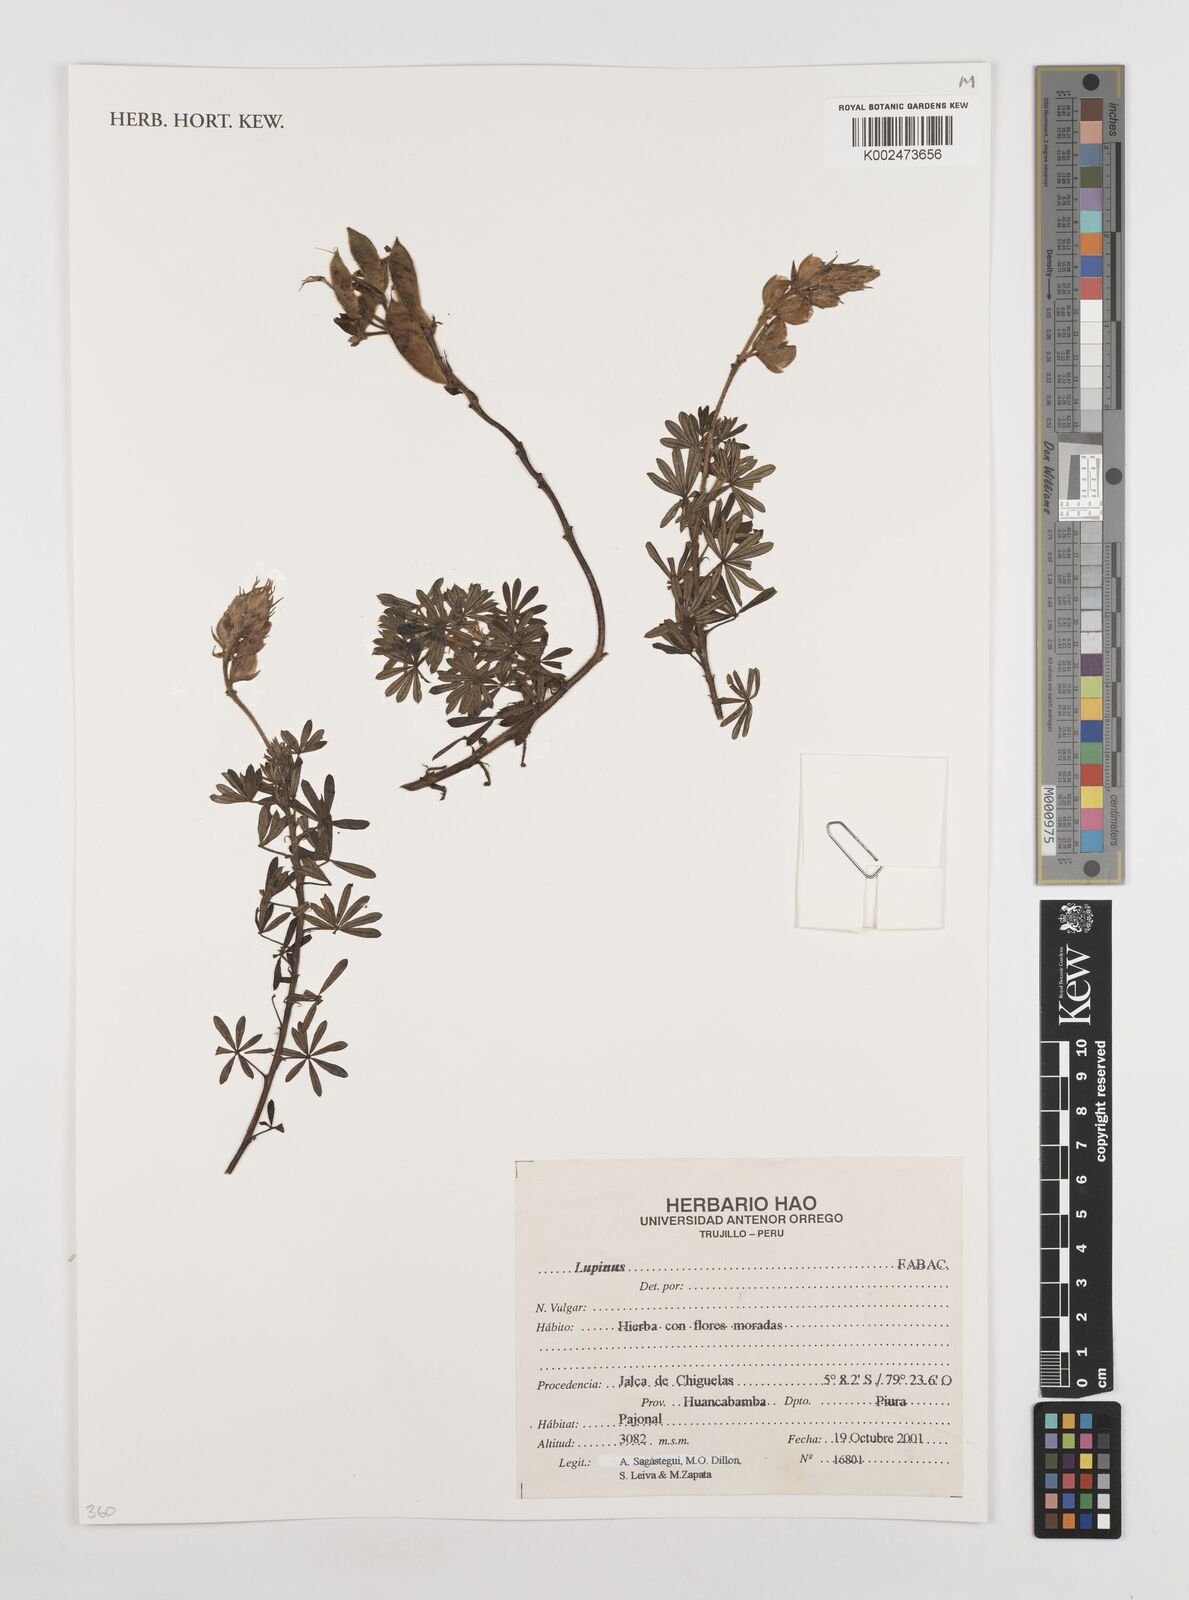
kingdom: Plantae
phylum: Tracheophyta
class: Magnoliopsida
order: Fabales
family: Fabaceae
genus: Lupinus
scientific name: Lupinus
